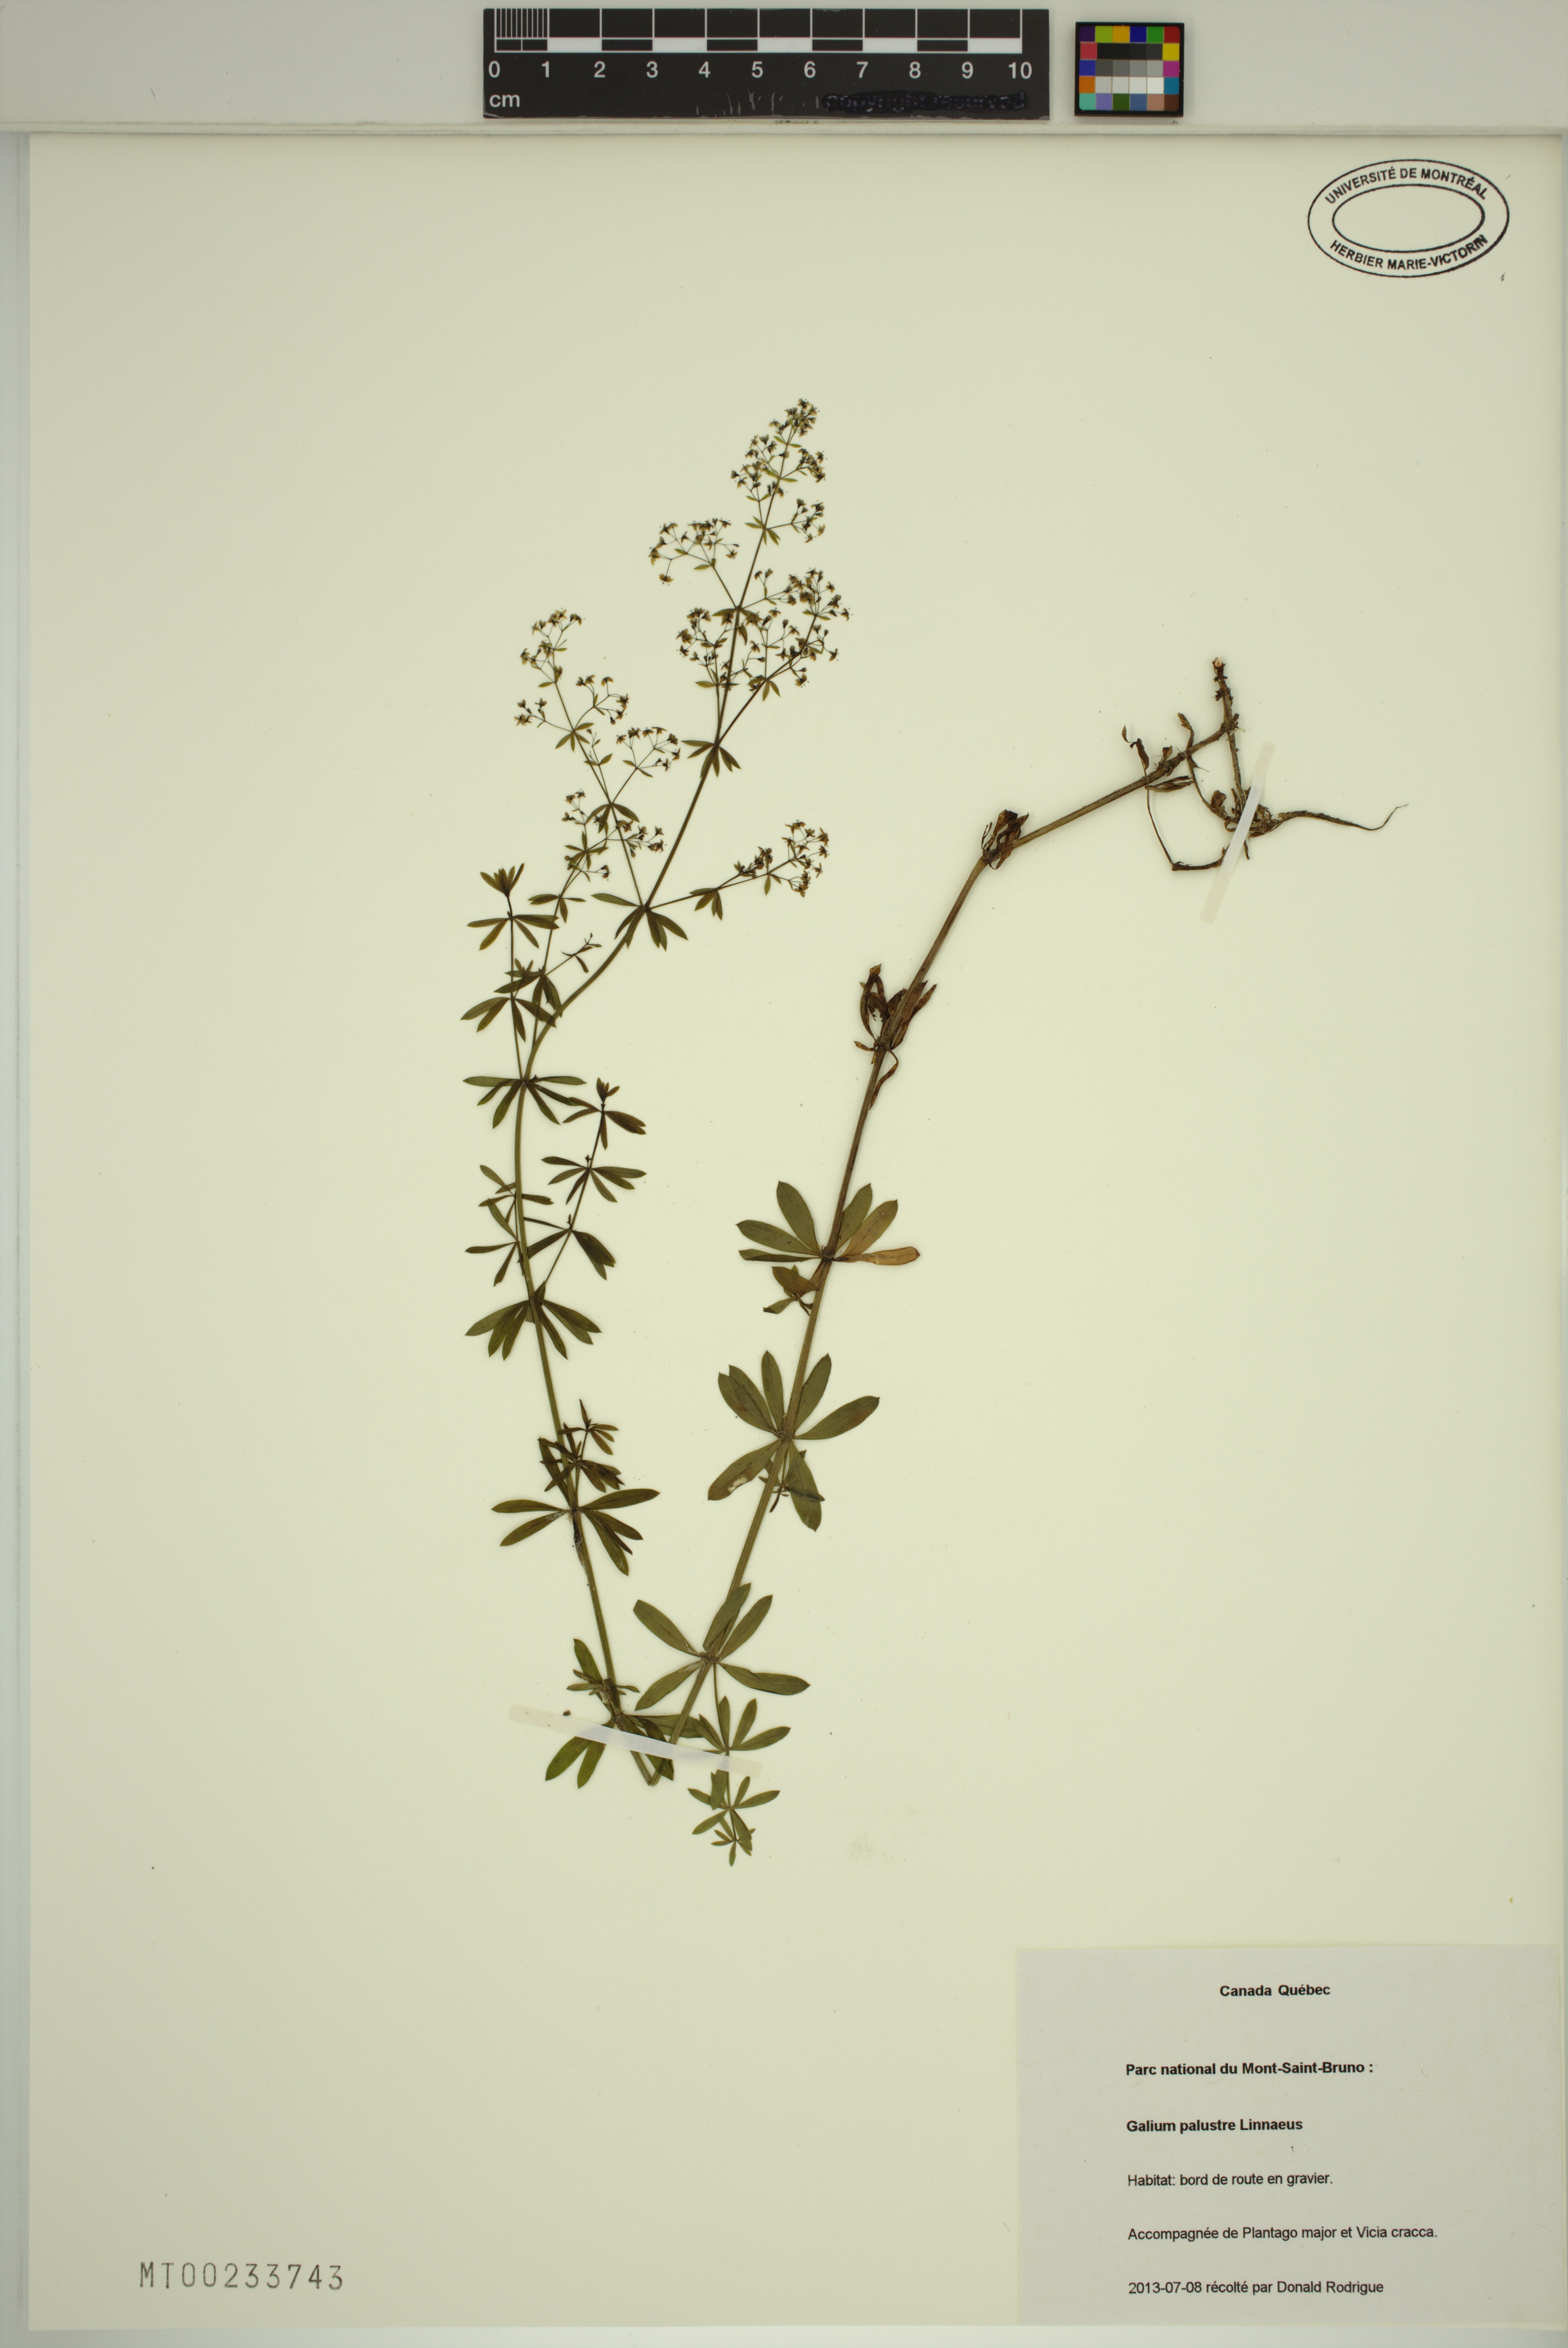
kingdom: Plantae
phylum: Tracheophyta
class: Magnoliopsida
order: Gentianales
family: Rubiaceae
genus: Galium
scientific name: Galium palustre
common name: Common marsh-bedstraw
